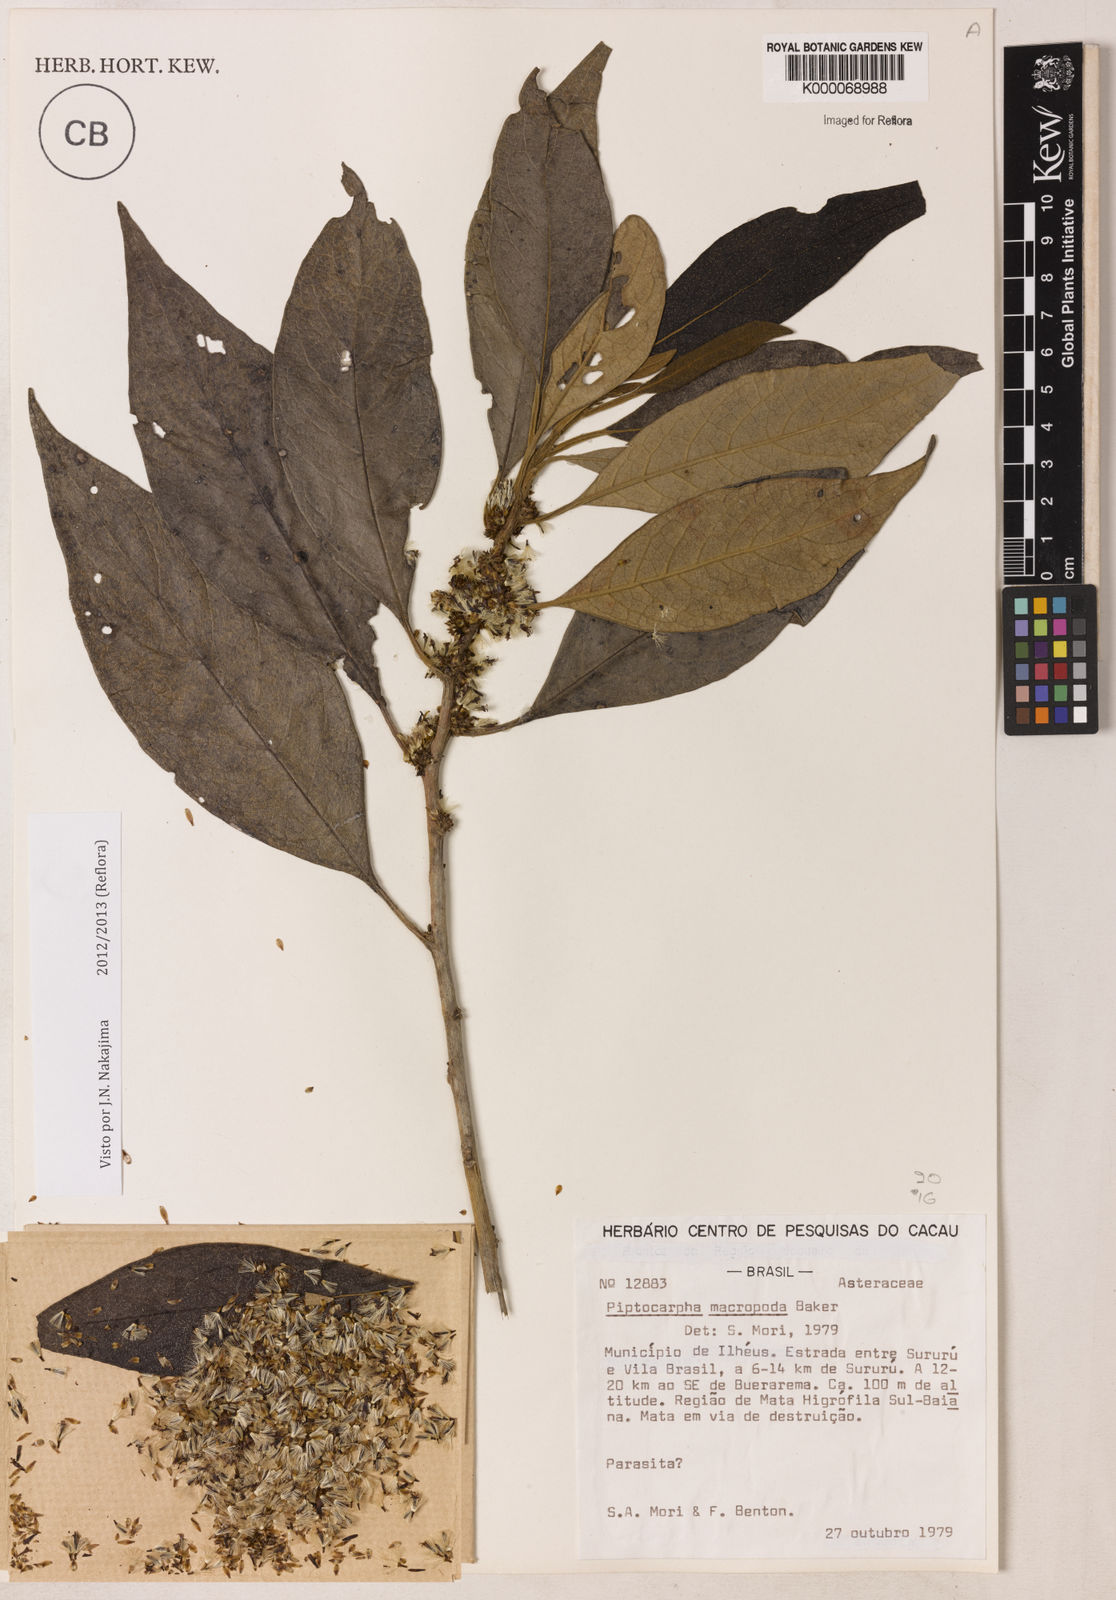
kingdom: Plantae
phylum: Tracheophyta
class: Magnoliopsida
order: Asterales
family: Asteraceae
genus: Piptocarpha
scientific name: Piptocarpha macropoda
